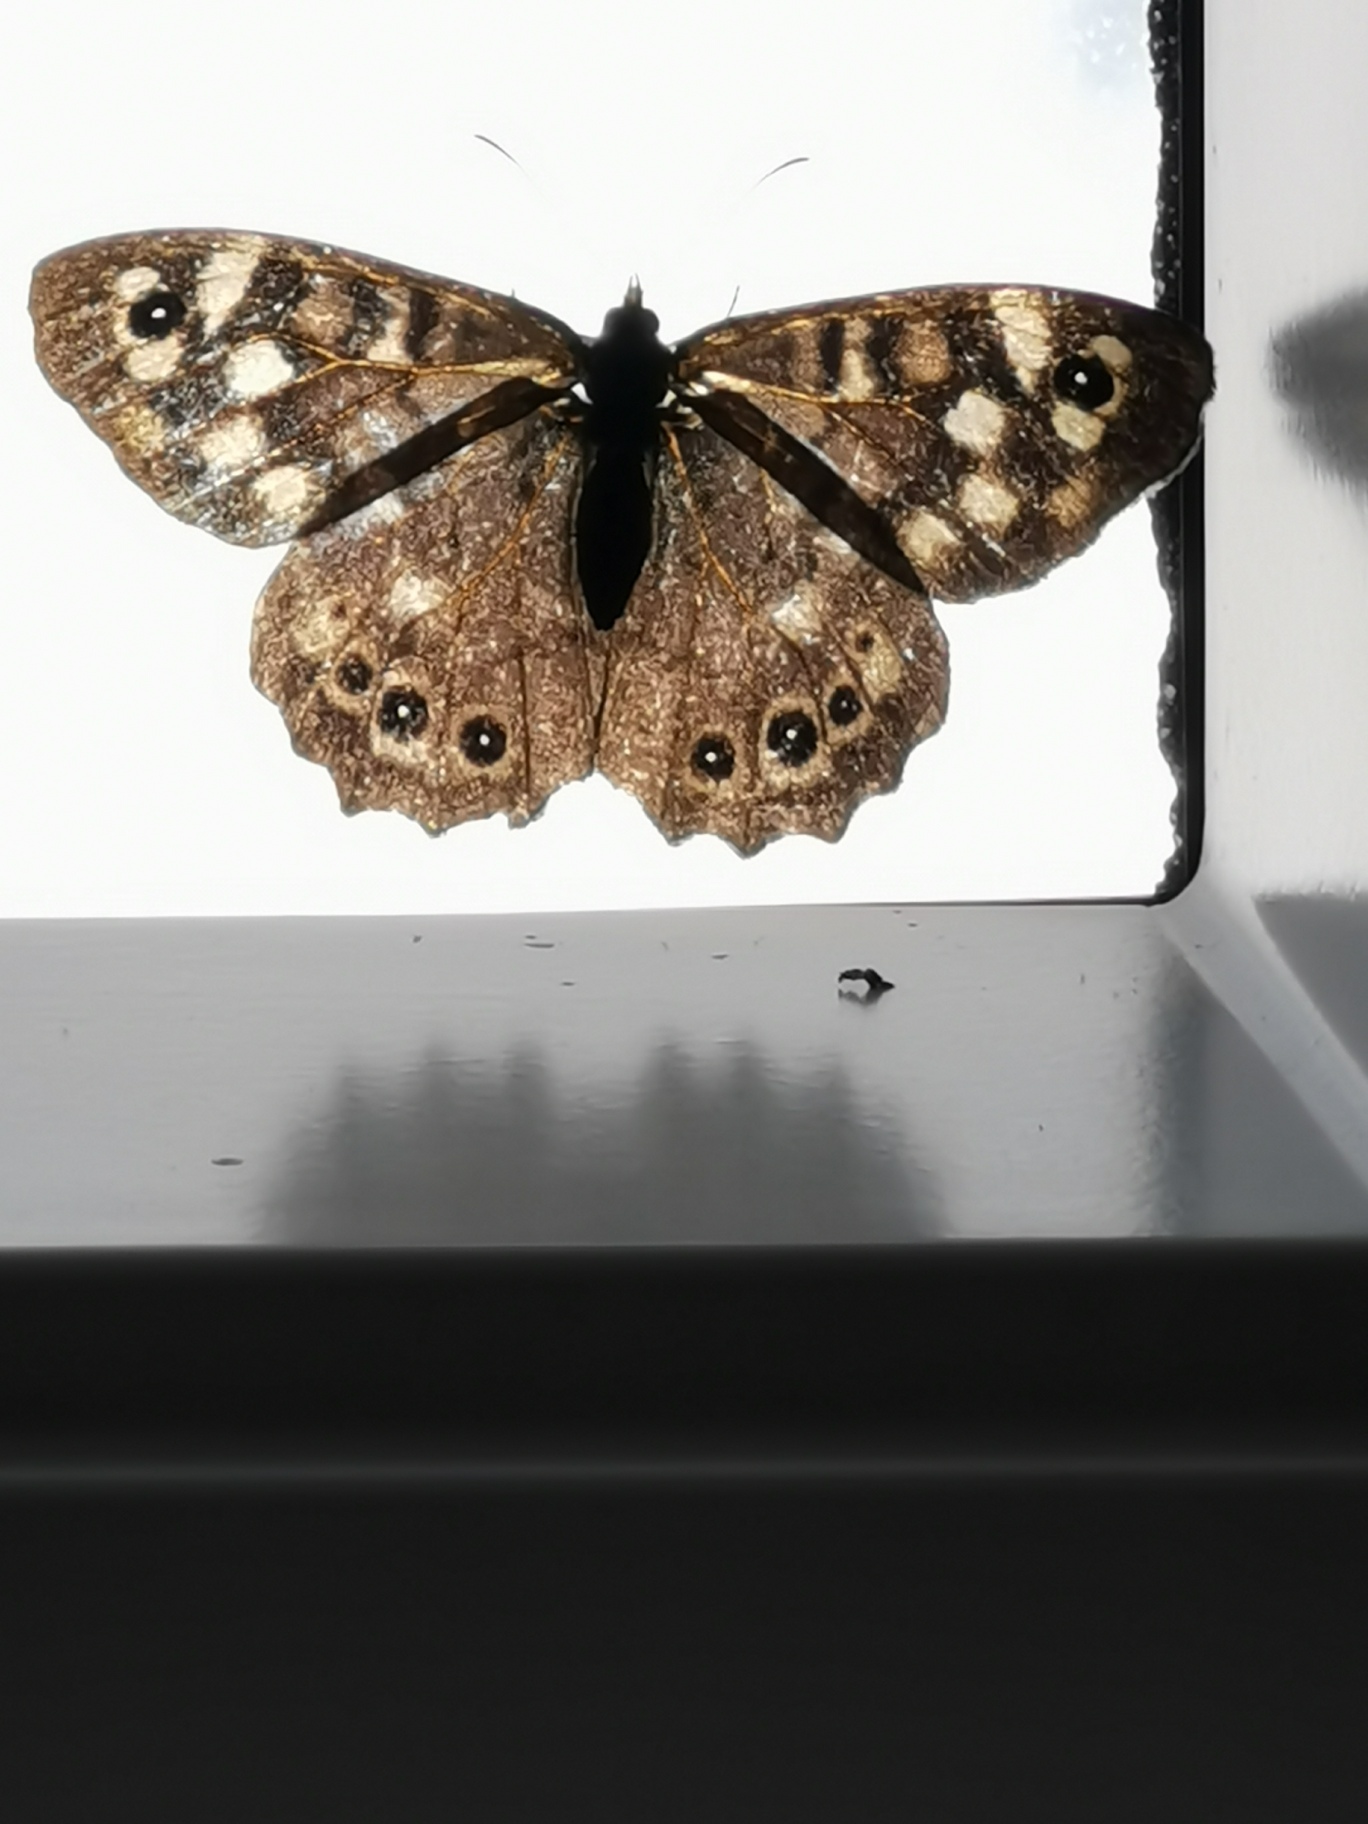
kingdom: Animalia
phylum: Arthropoda
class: Insecta
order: Lepidoptera
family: Nymphalidae
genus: Pararge
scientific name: Pararge aegeria
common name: Skovrandøje
